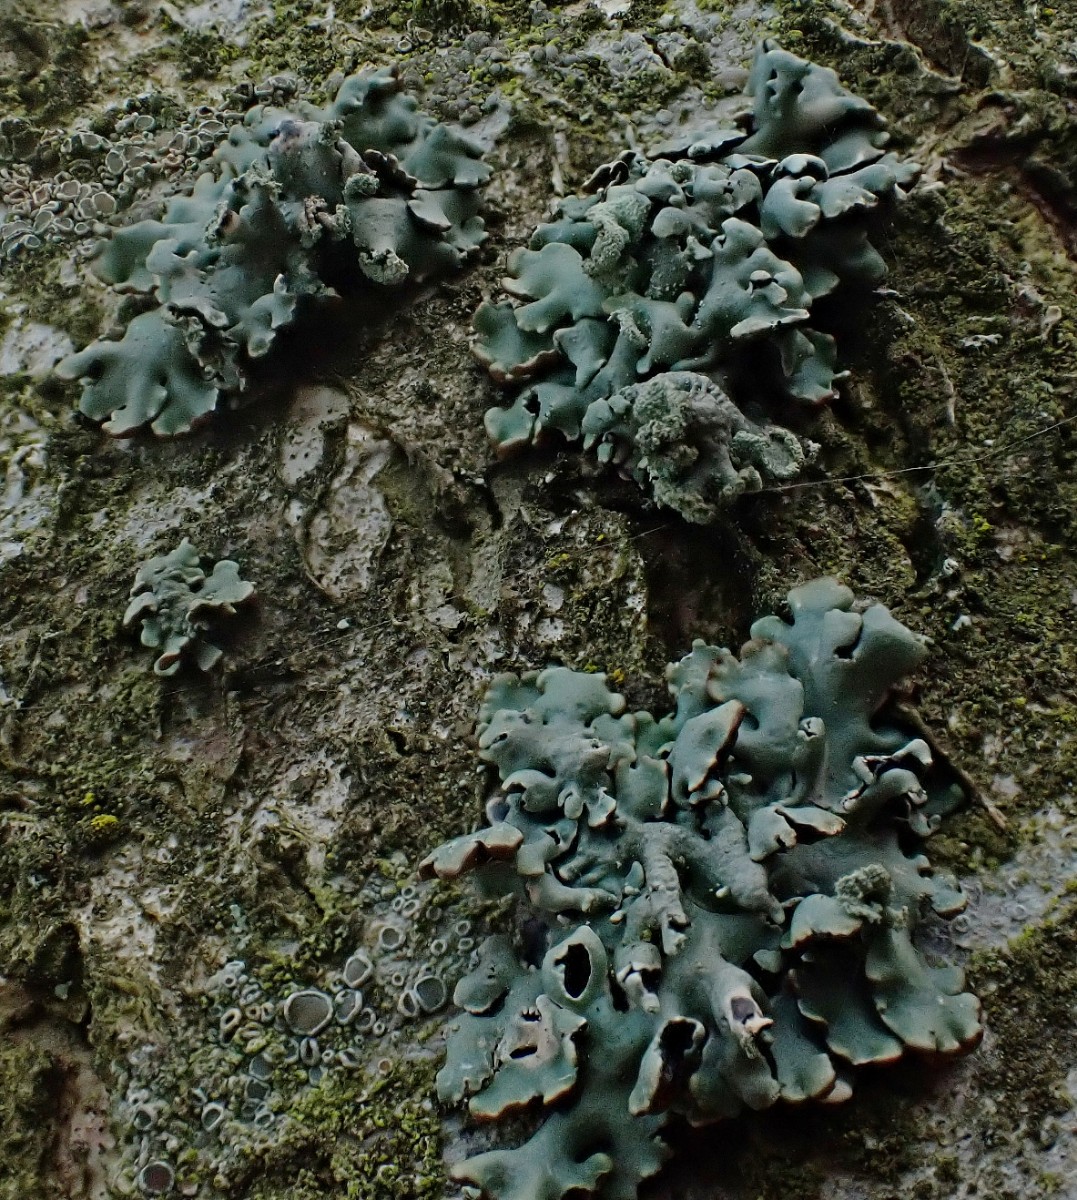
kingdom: Fungi
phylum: Ascomycota
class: Lecanoromycetes
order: Lecanorales
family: Parmeliaceae
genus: Hypogymnia
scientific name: Hypogymnia physodes
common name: almindelig kvistlav
